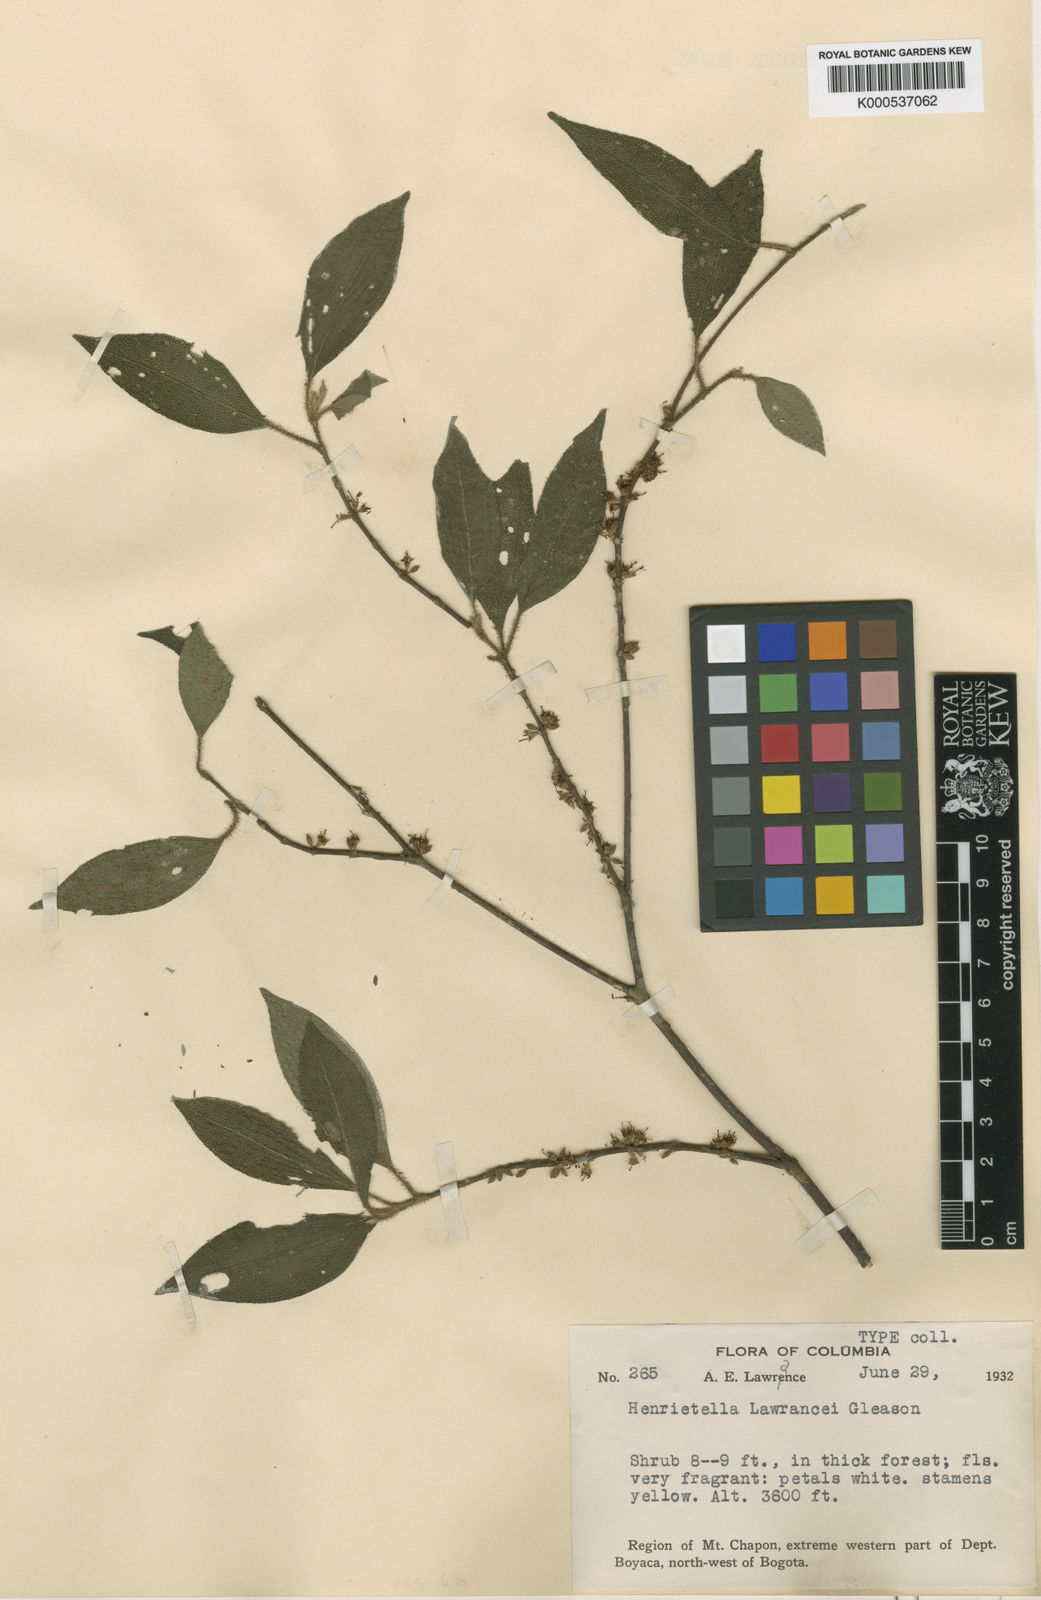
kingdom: Plantae
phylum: Tracheophyta
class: Magnoliopsida
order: Myrtales
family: Melastomataceae
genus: Henriettea
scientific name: Henriettea lawrancei
